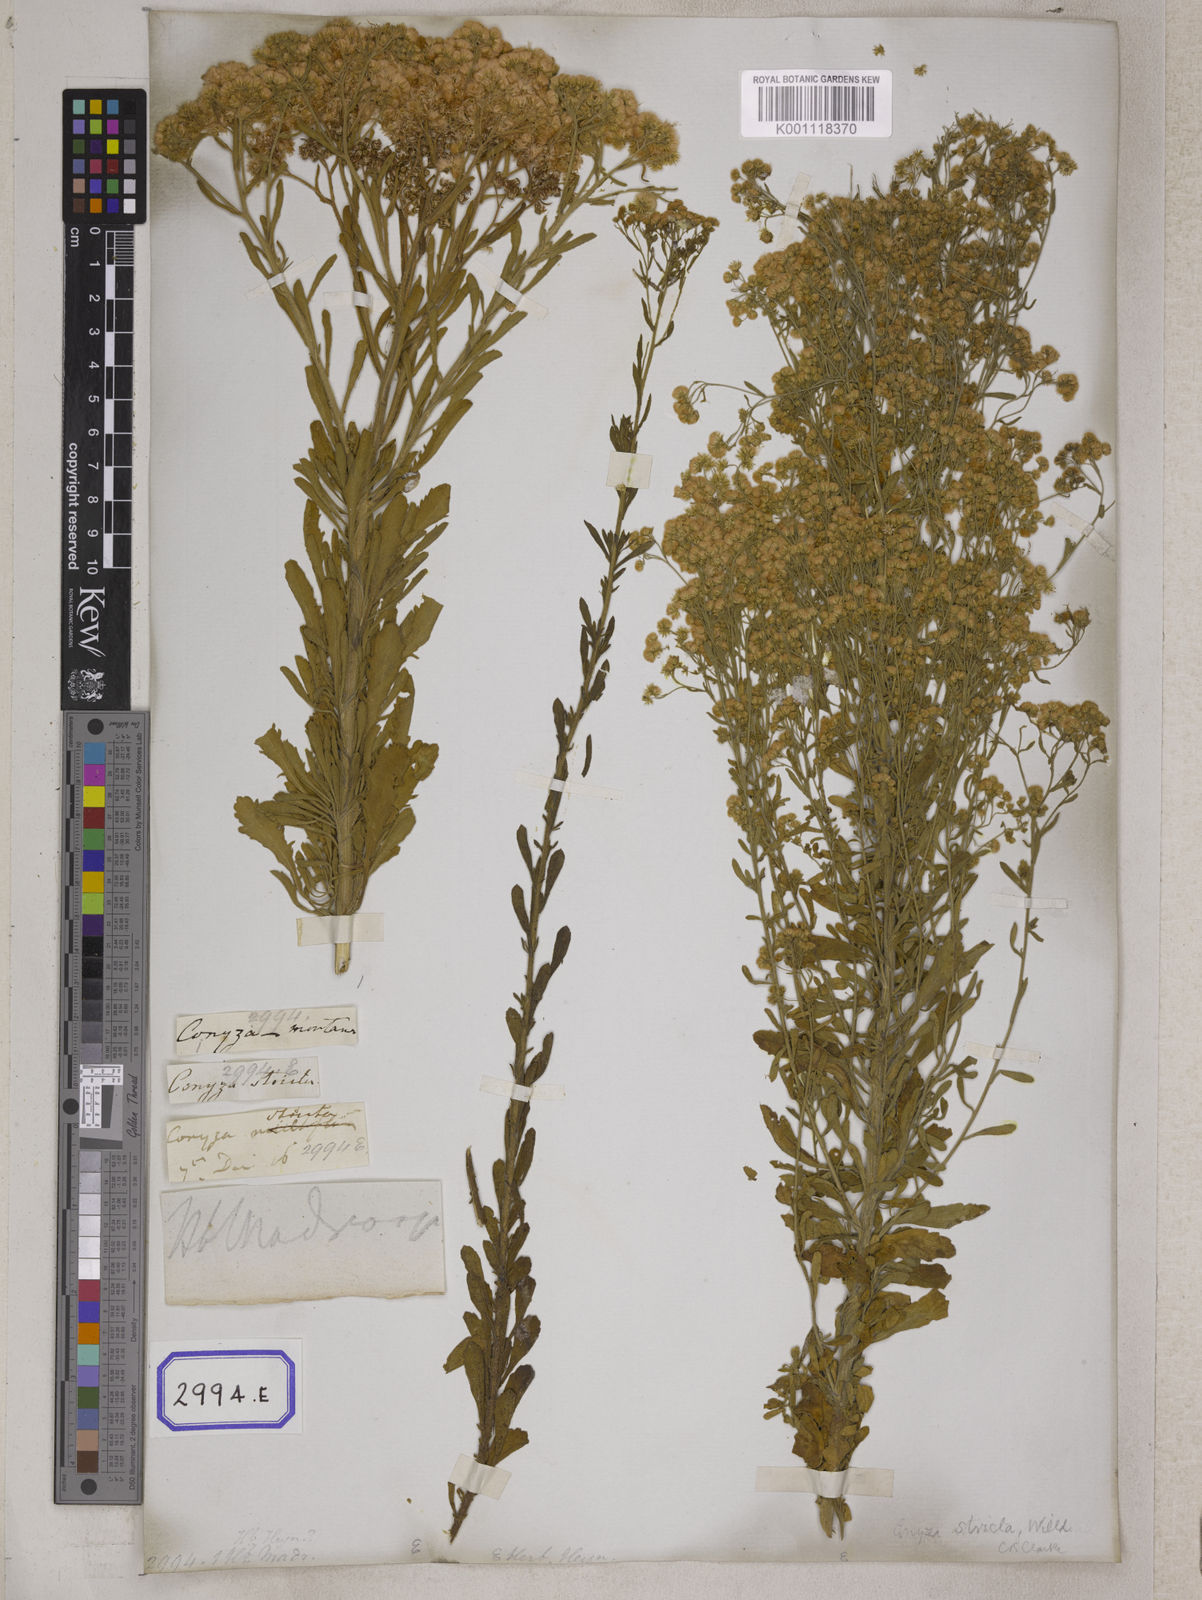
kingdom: Plantae
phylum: Tracheophyta
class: Magnoliopsida
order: Asterales
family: Asteraceae
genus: Nidorella
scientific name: Nidorella triloba
